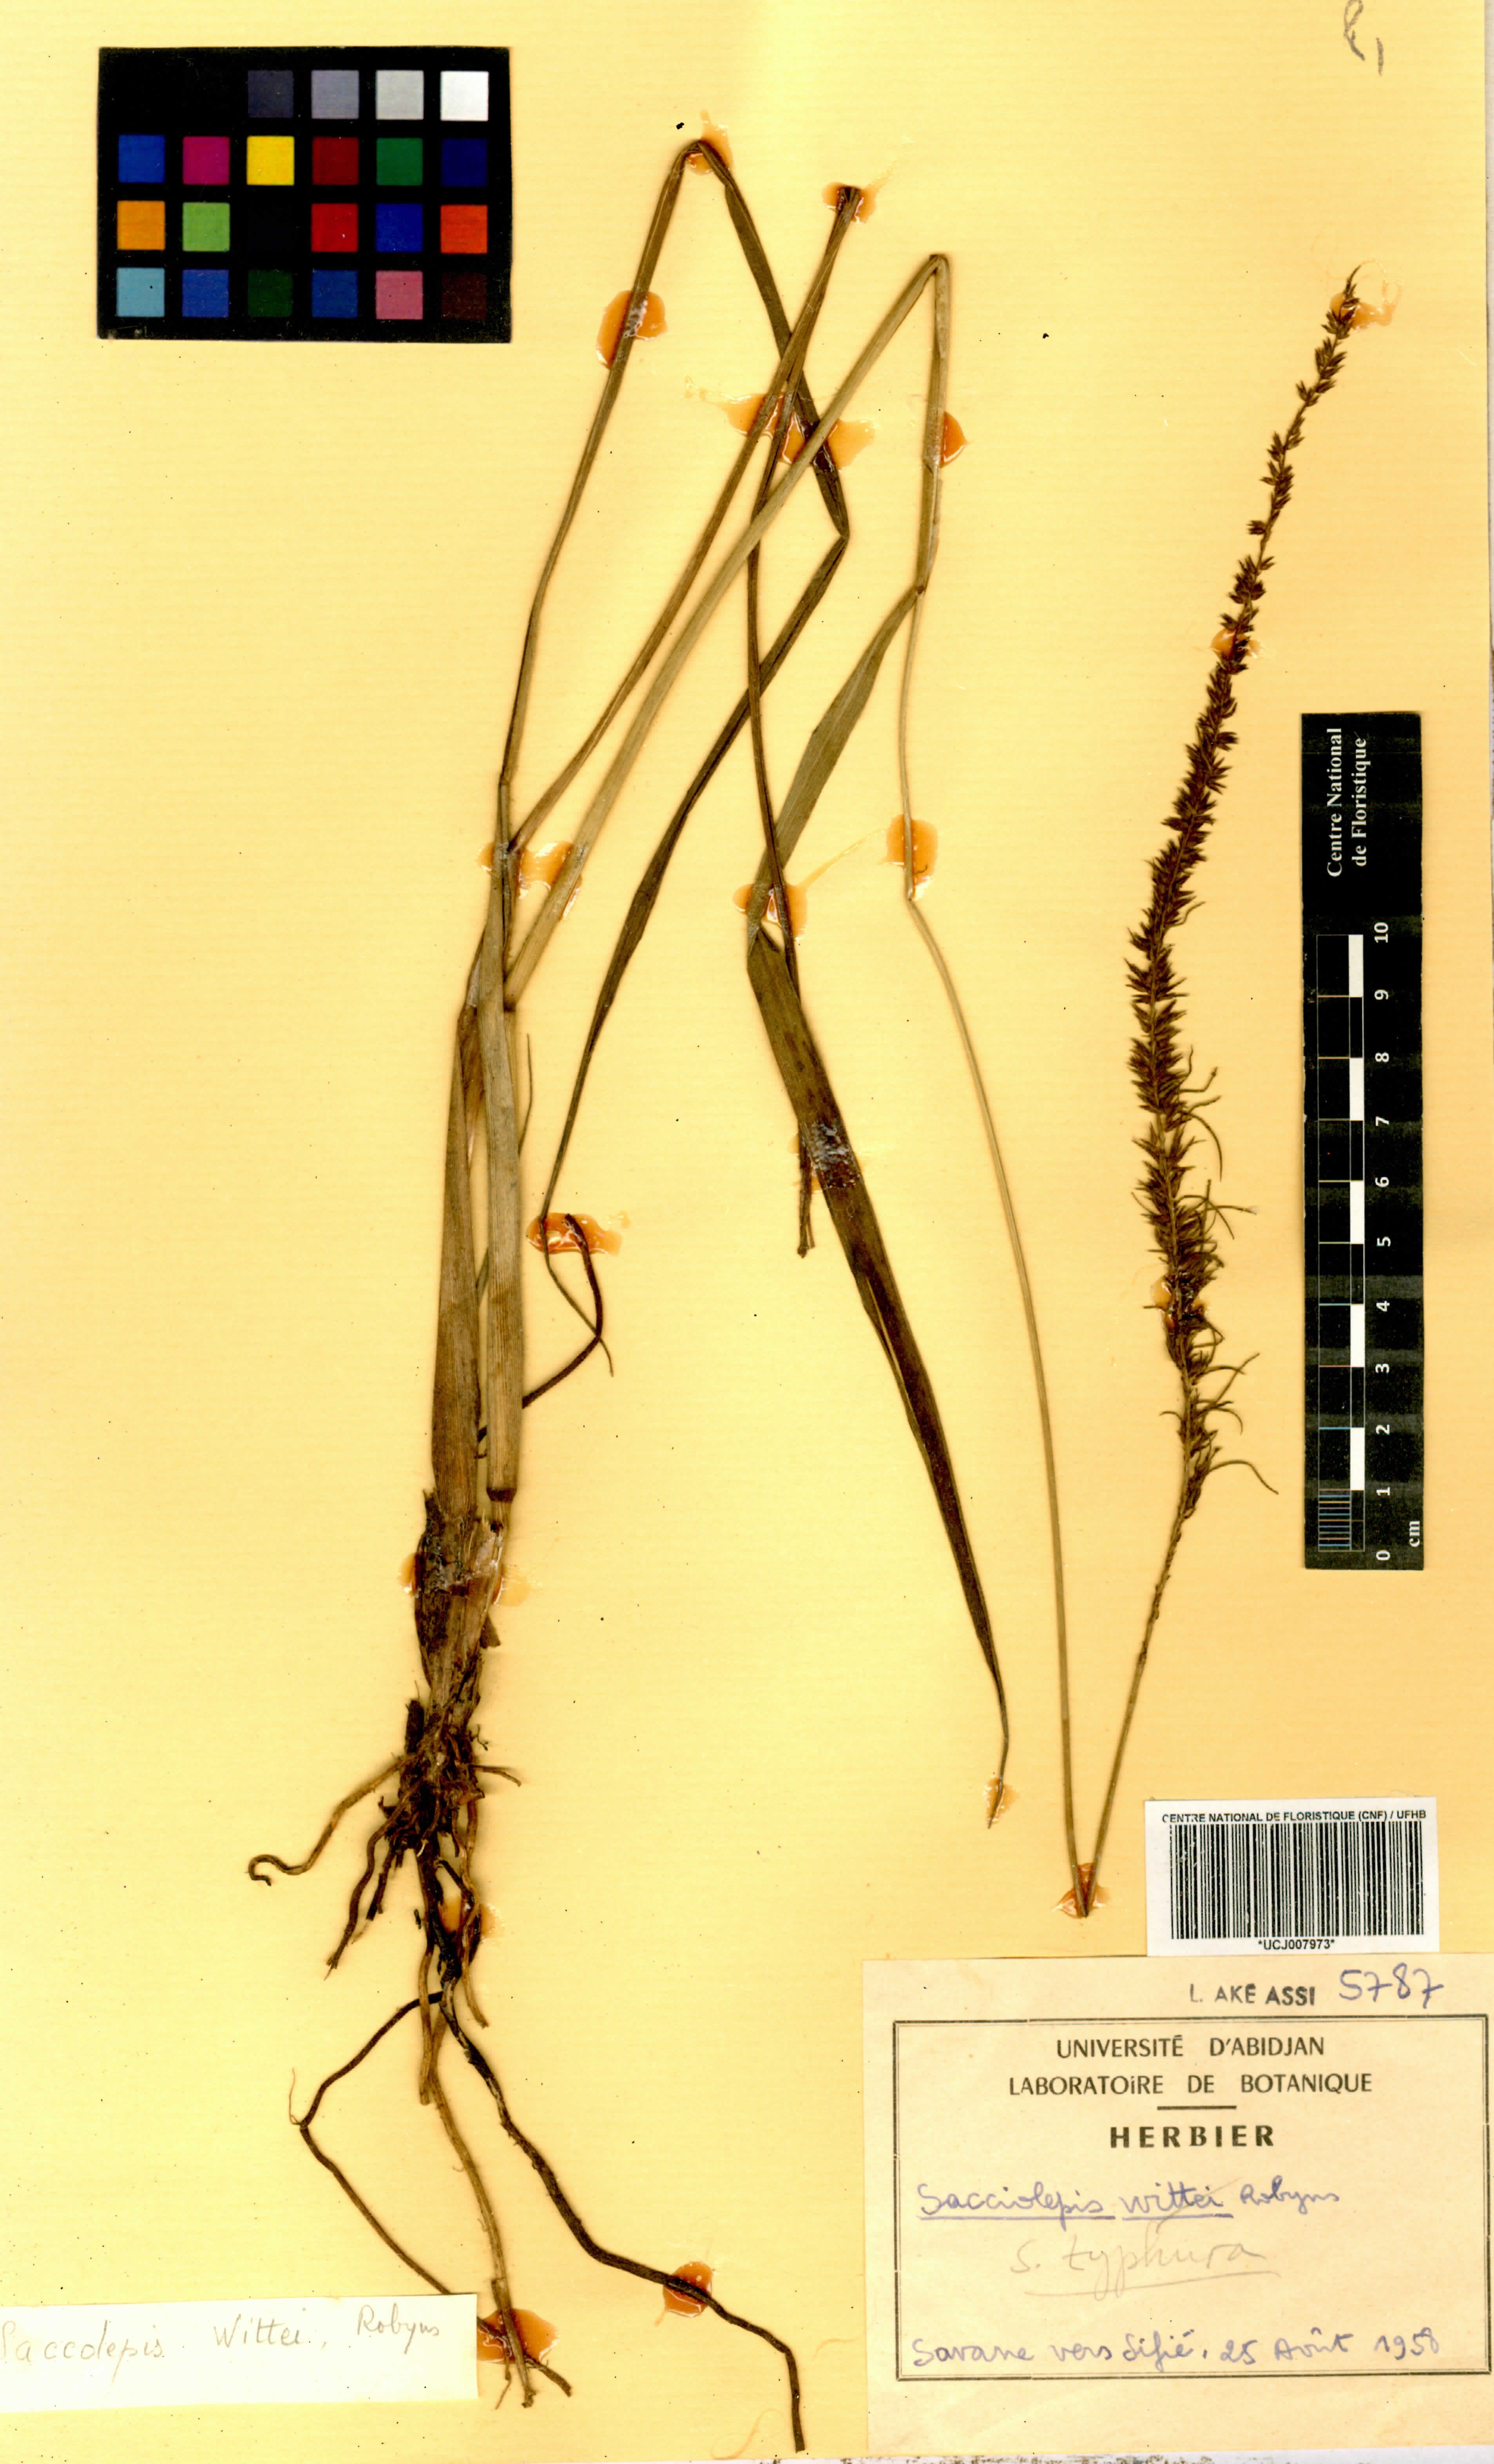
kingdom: Plantae
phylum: Tracheophyta
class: Liliopsida
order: Poales
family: Poaceae
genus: Sacciolepis
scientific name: Sacciolepis typhura
